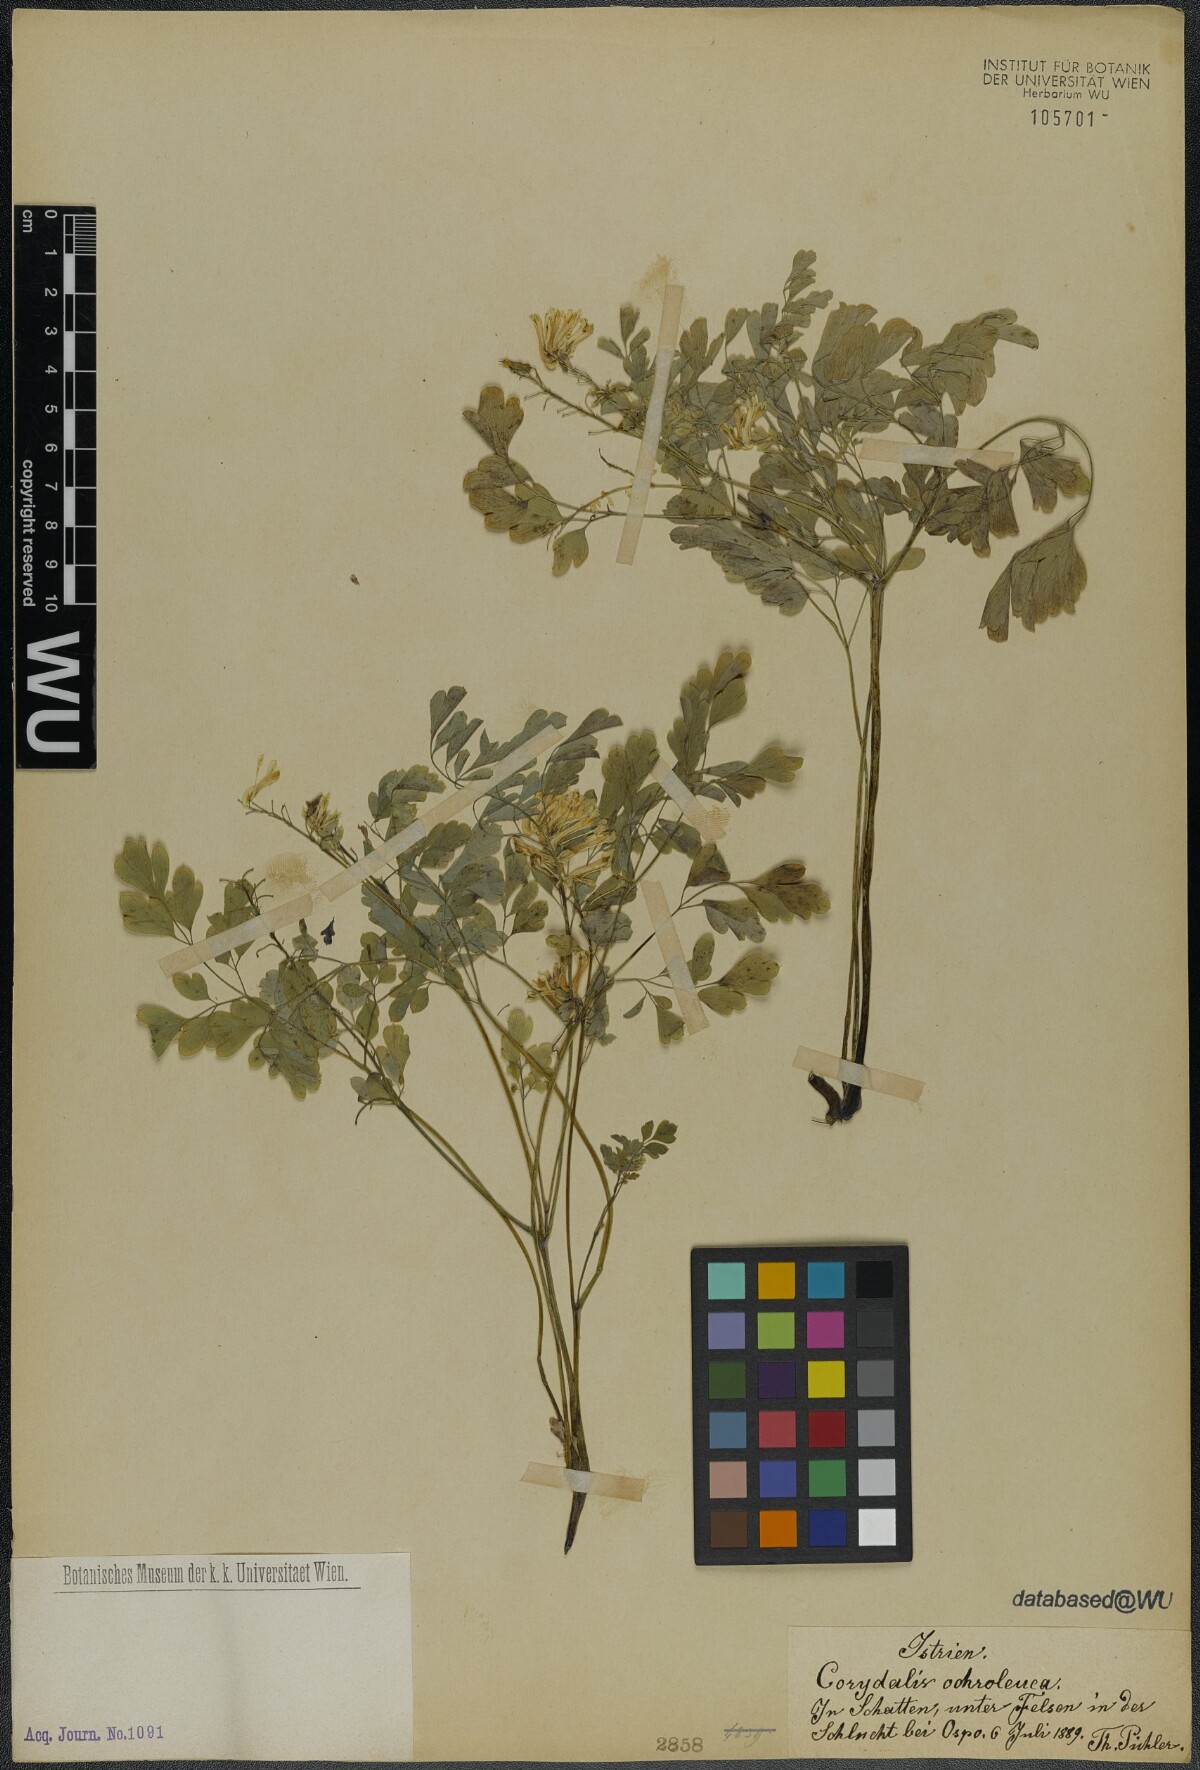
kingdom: Plantae
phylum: Tracheophyta
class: Magnoliopsida
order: Ranunculales
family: Papaveraceae
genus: Pseudofumaria
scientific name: Pseudofumaria alba
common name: Pale corydalis
